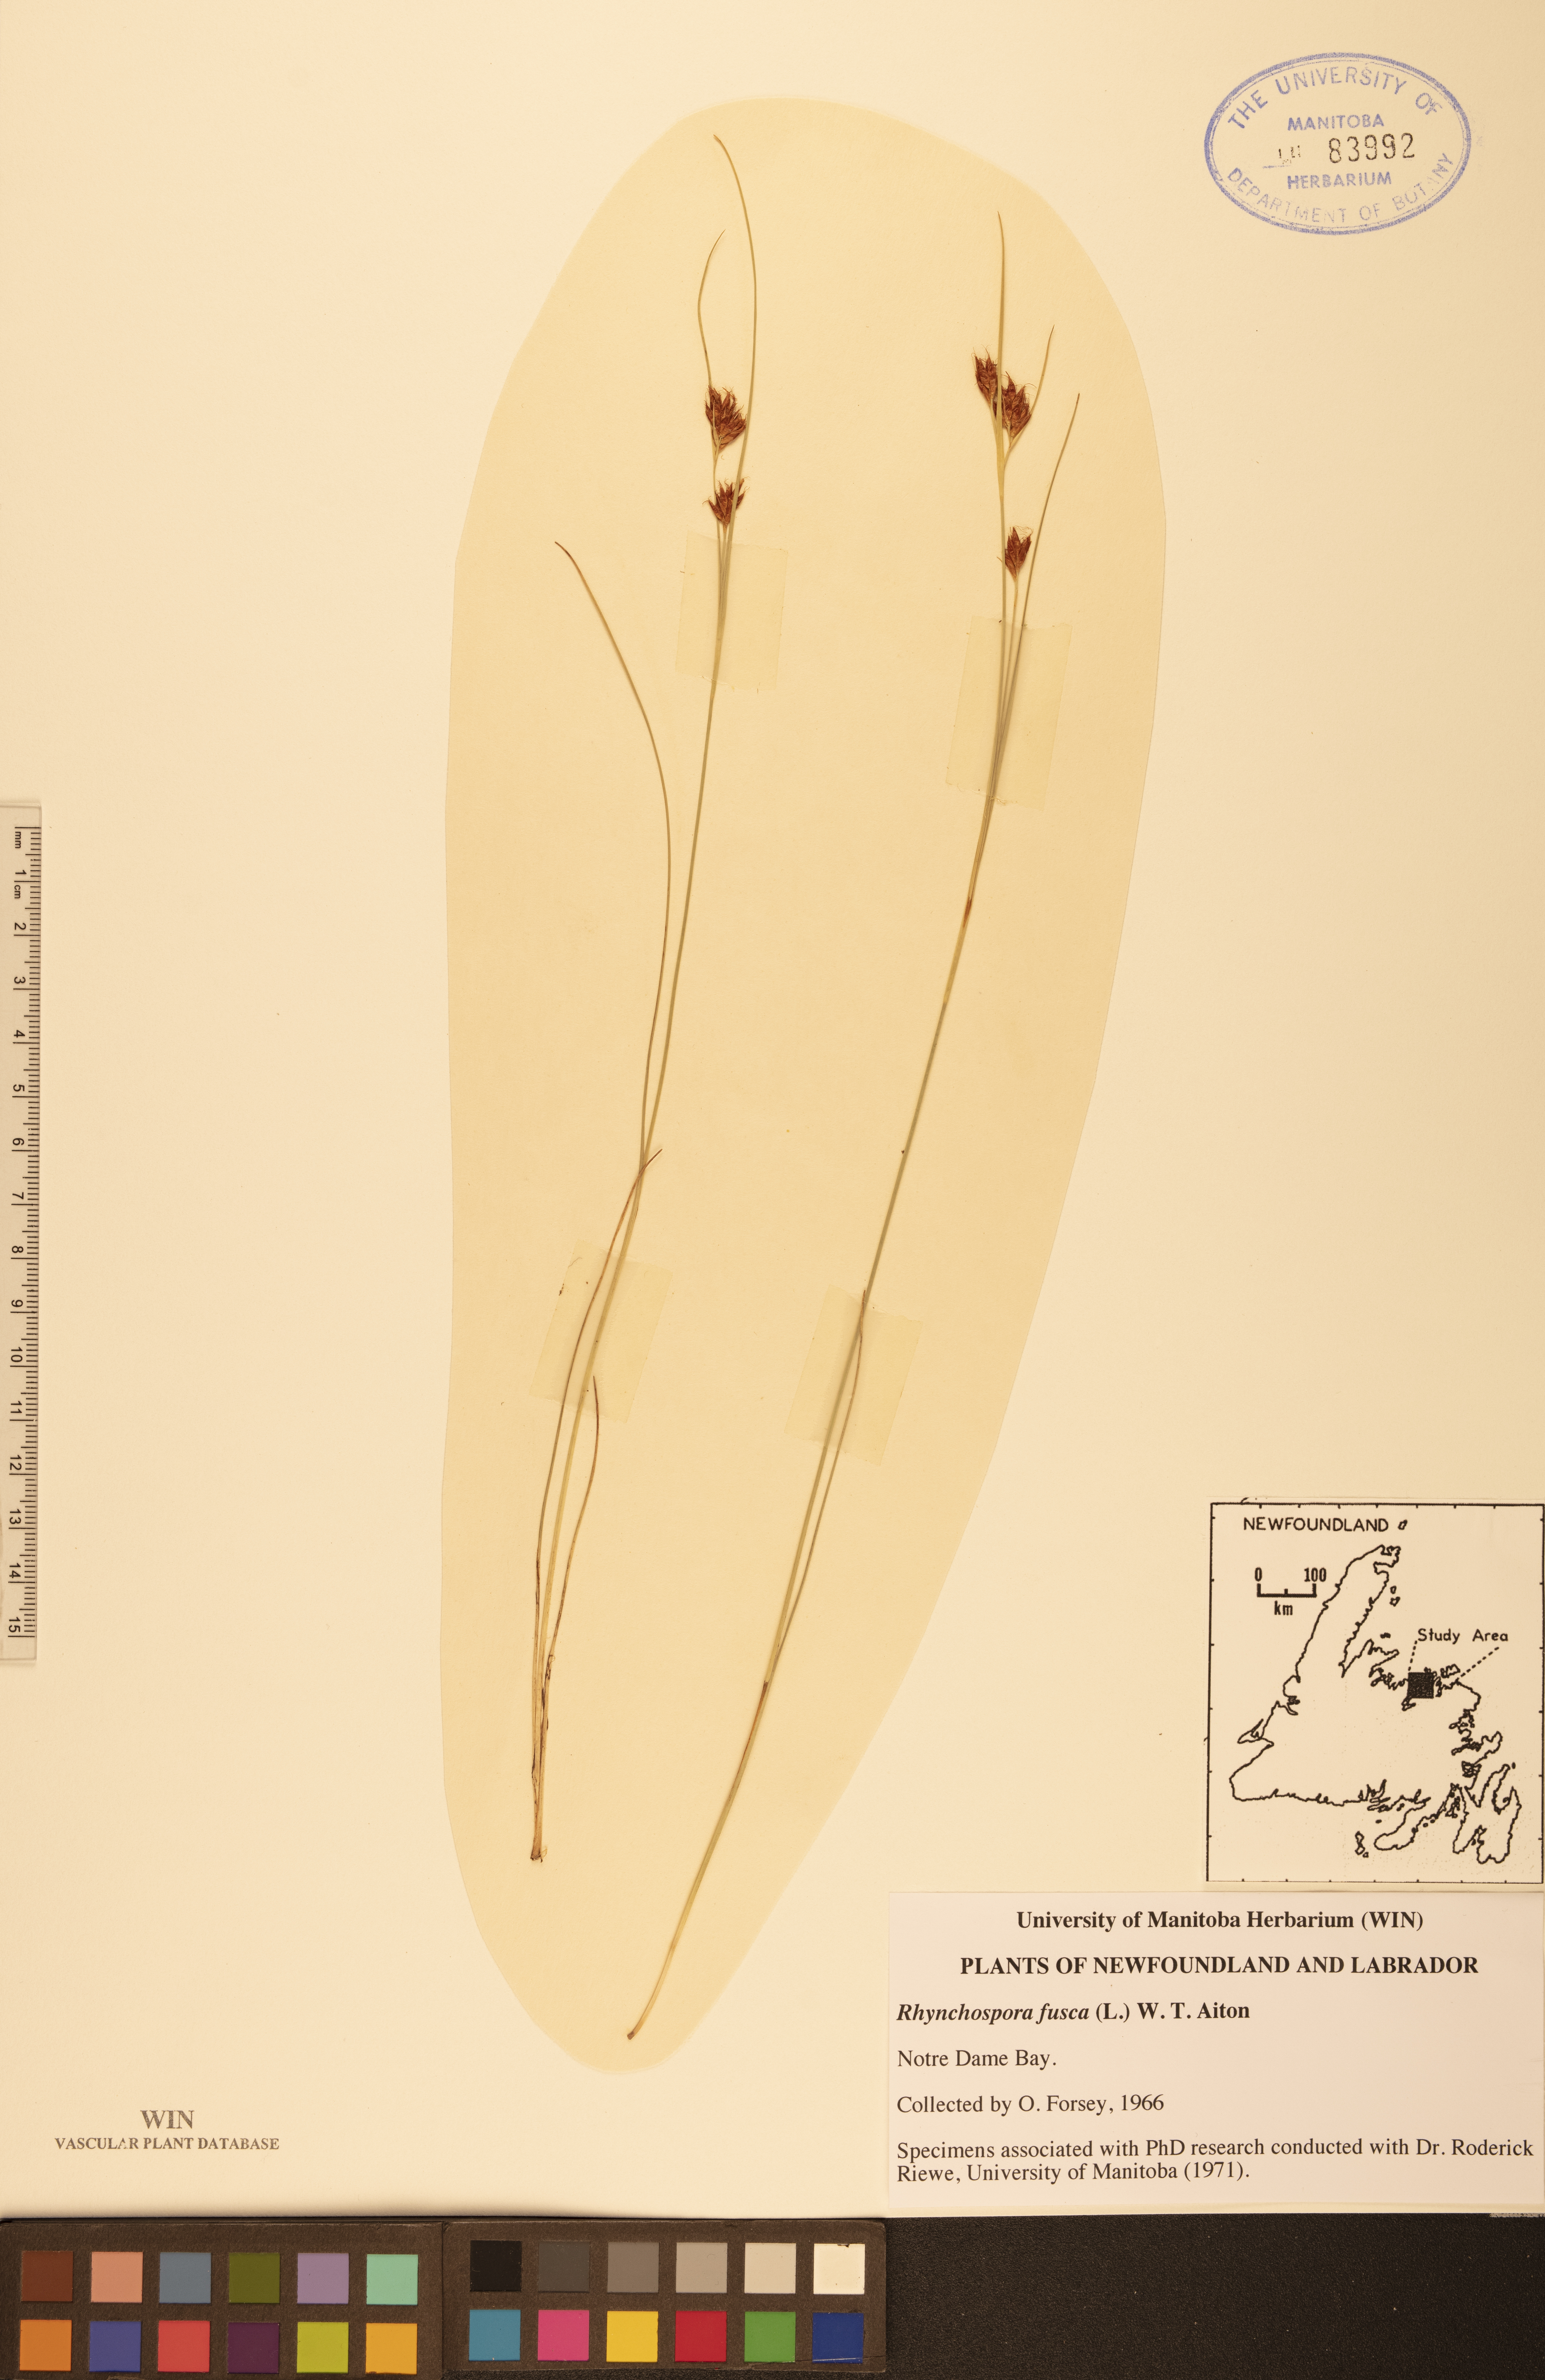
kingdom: Plantae
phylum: Tracheophyta
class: Liliopsida
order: Poales
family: Cyperaceae
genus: Rhynchospora
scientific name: Rhynchospora fusca
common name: Brown beak-sedge
